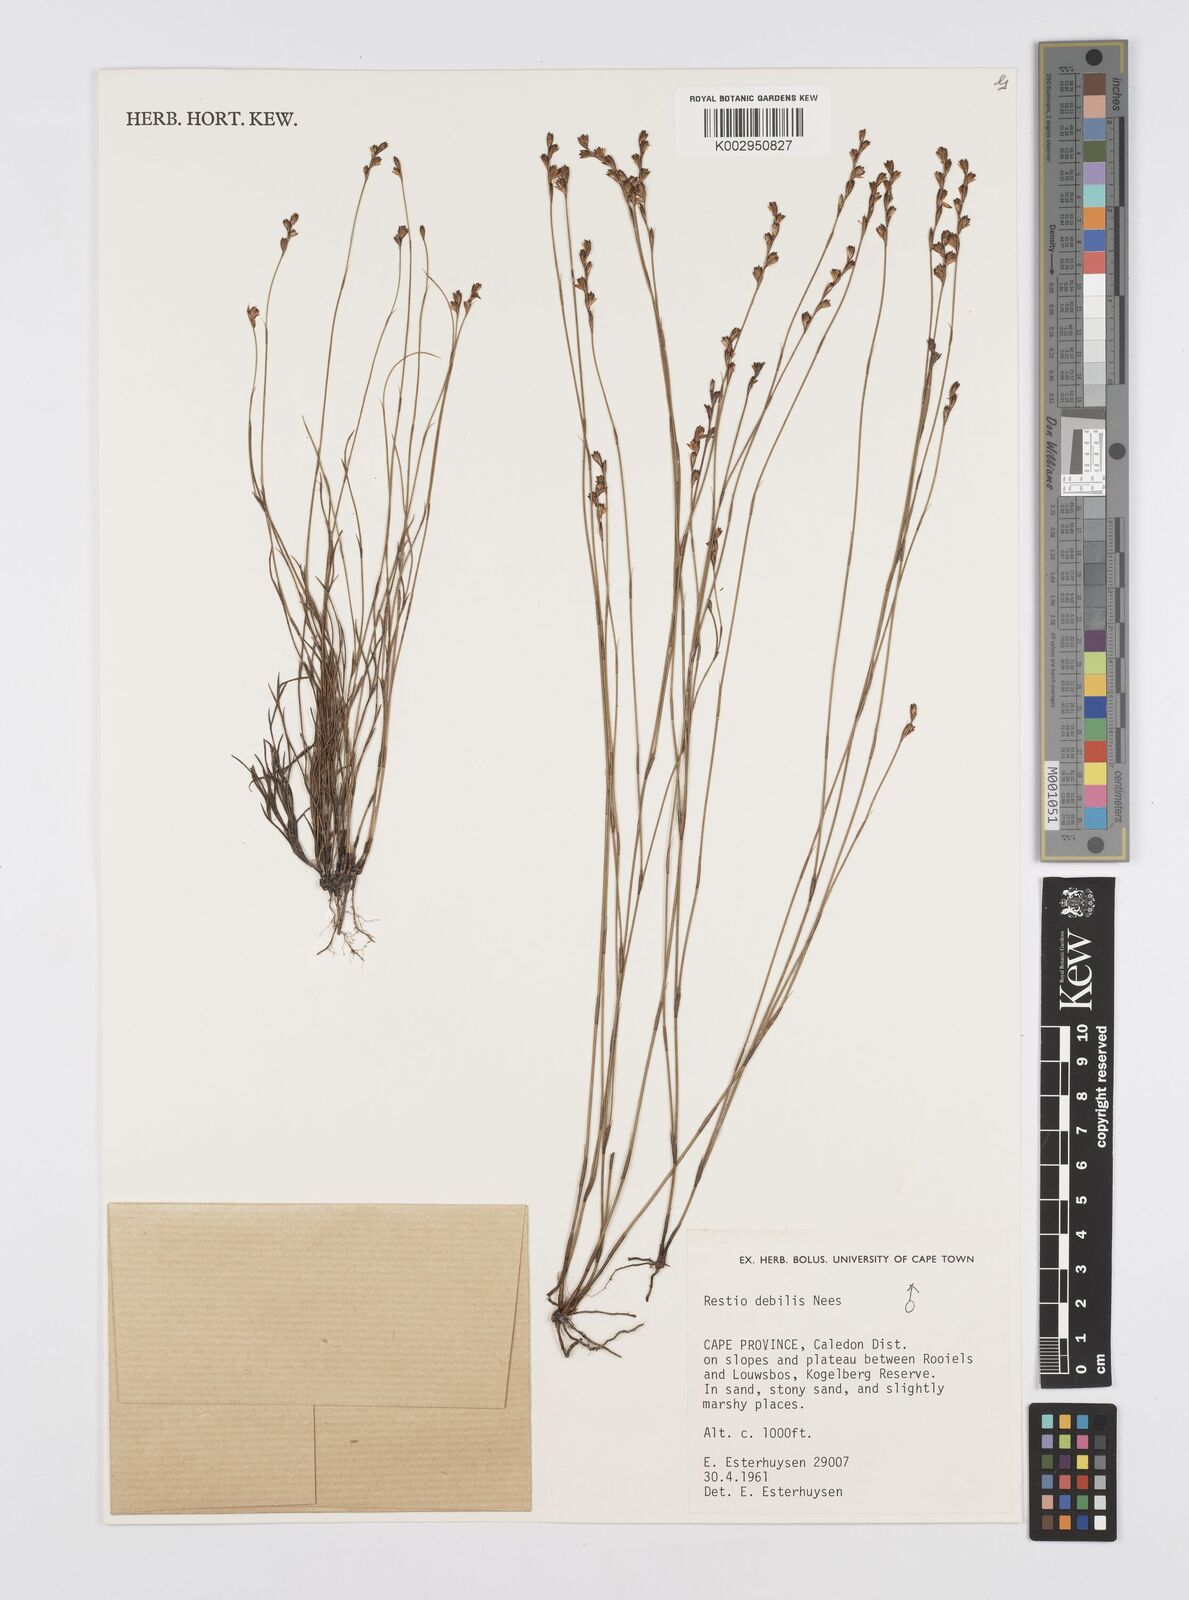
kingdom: Plantae
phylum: Tracheophyta
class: Liliopsida
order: Poales
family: Restionaceae
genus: Restio
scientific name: Restio debilis
